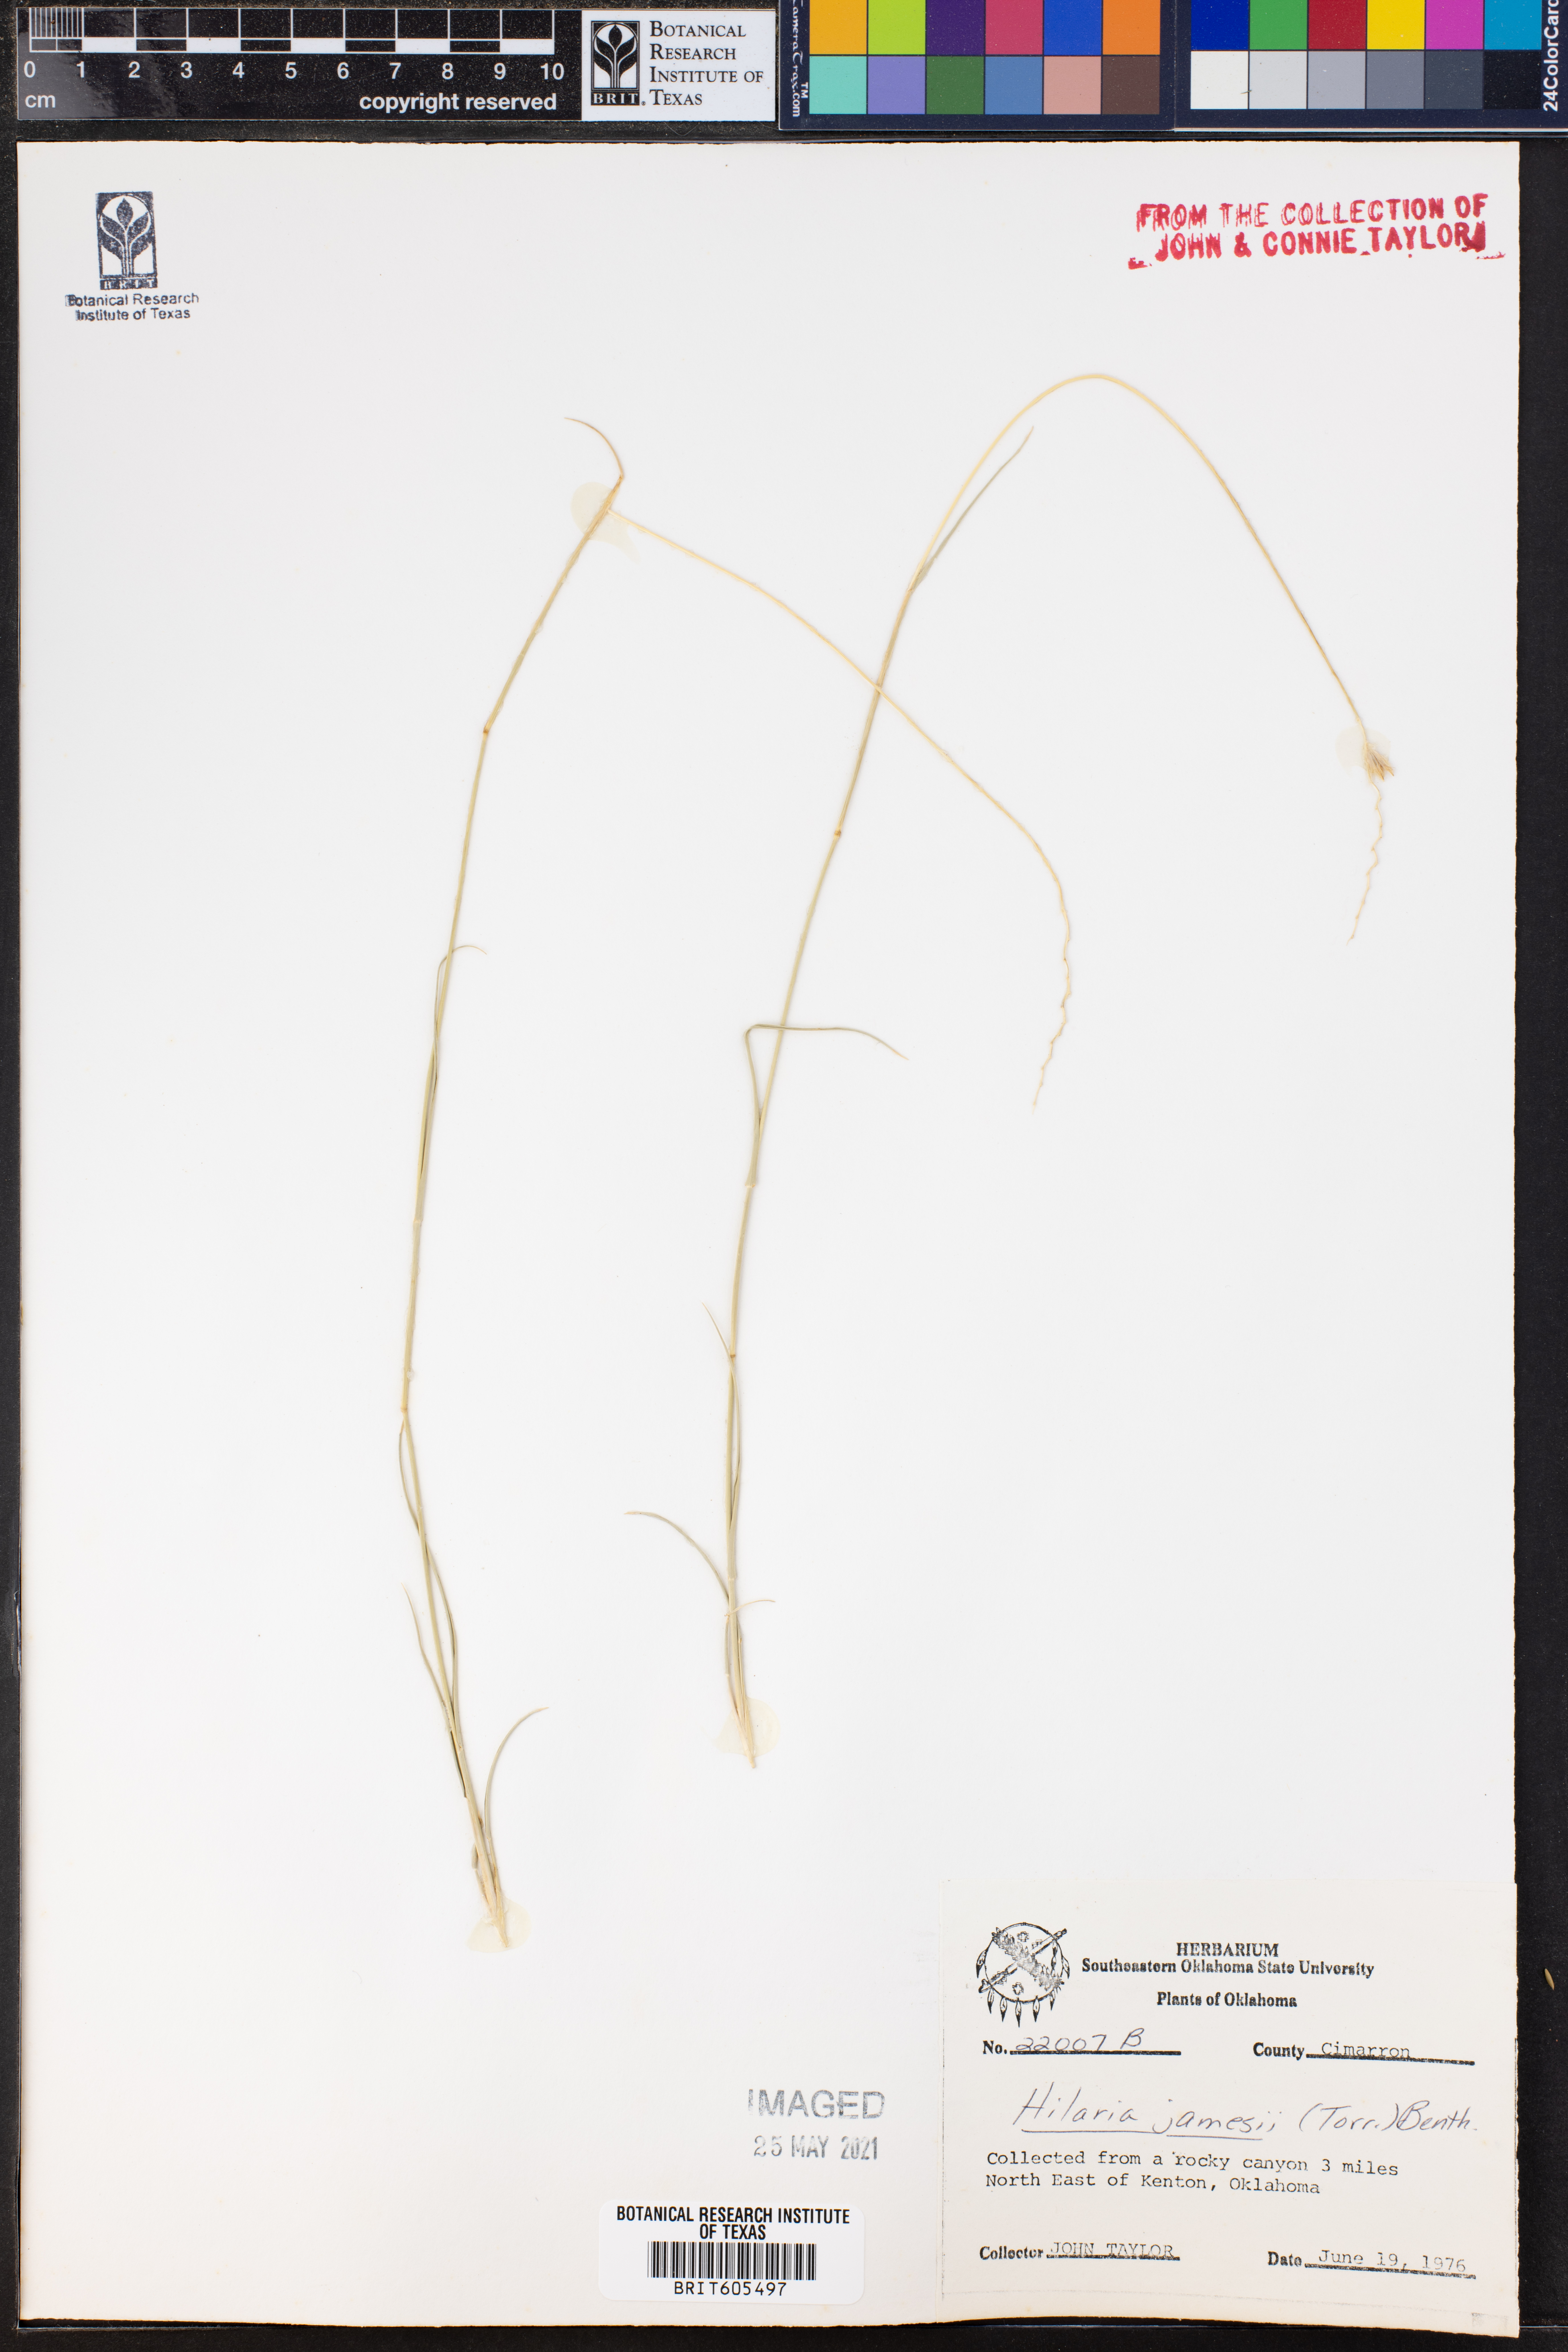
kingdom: Plantae
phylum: Tracheophyta
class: Liliopsida
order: Poales
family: Poaceae
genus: Hilaria
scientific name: Hilaria jamesii
